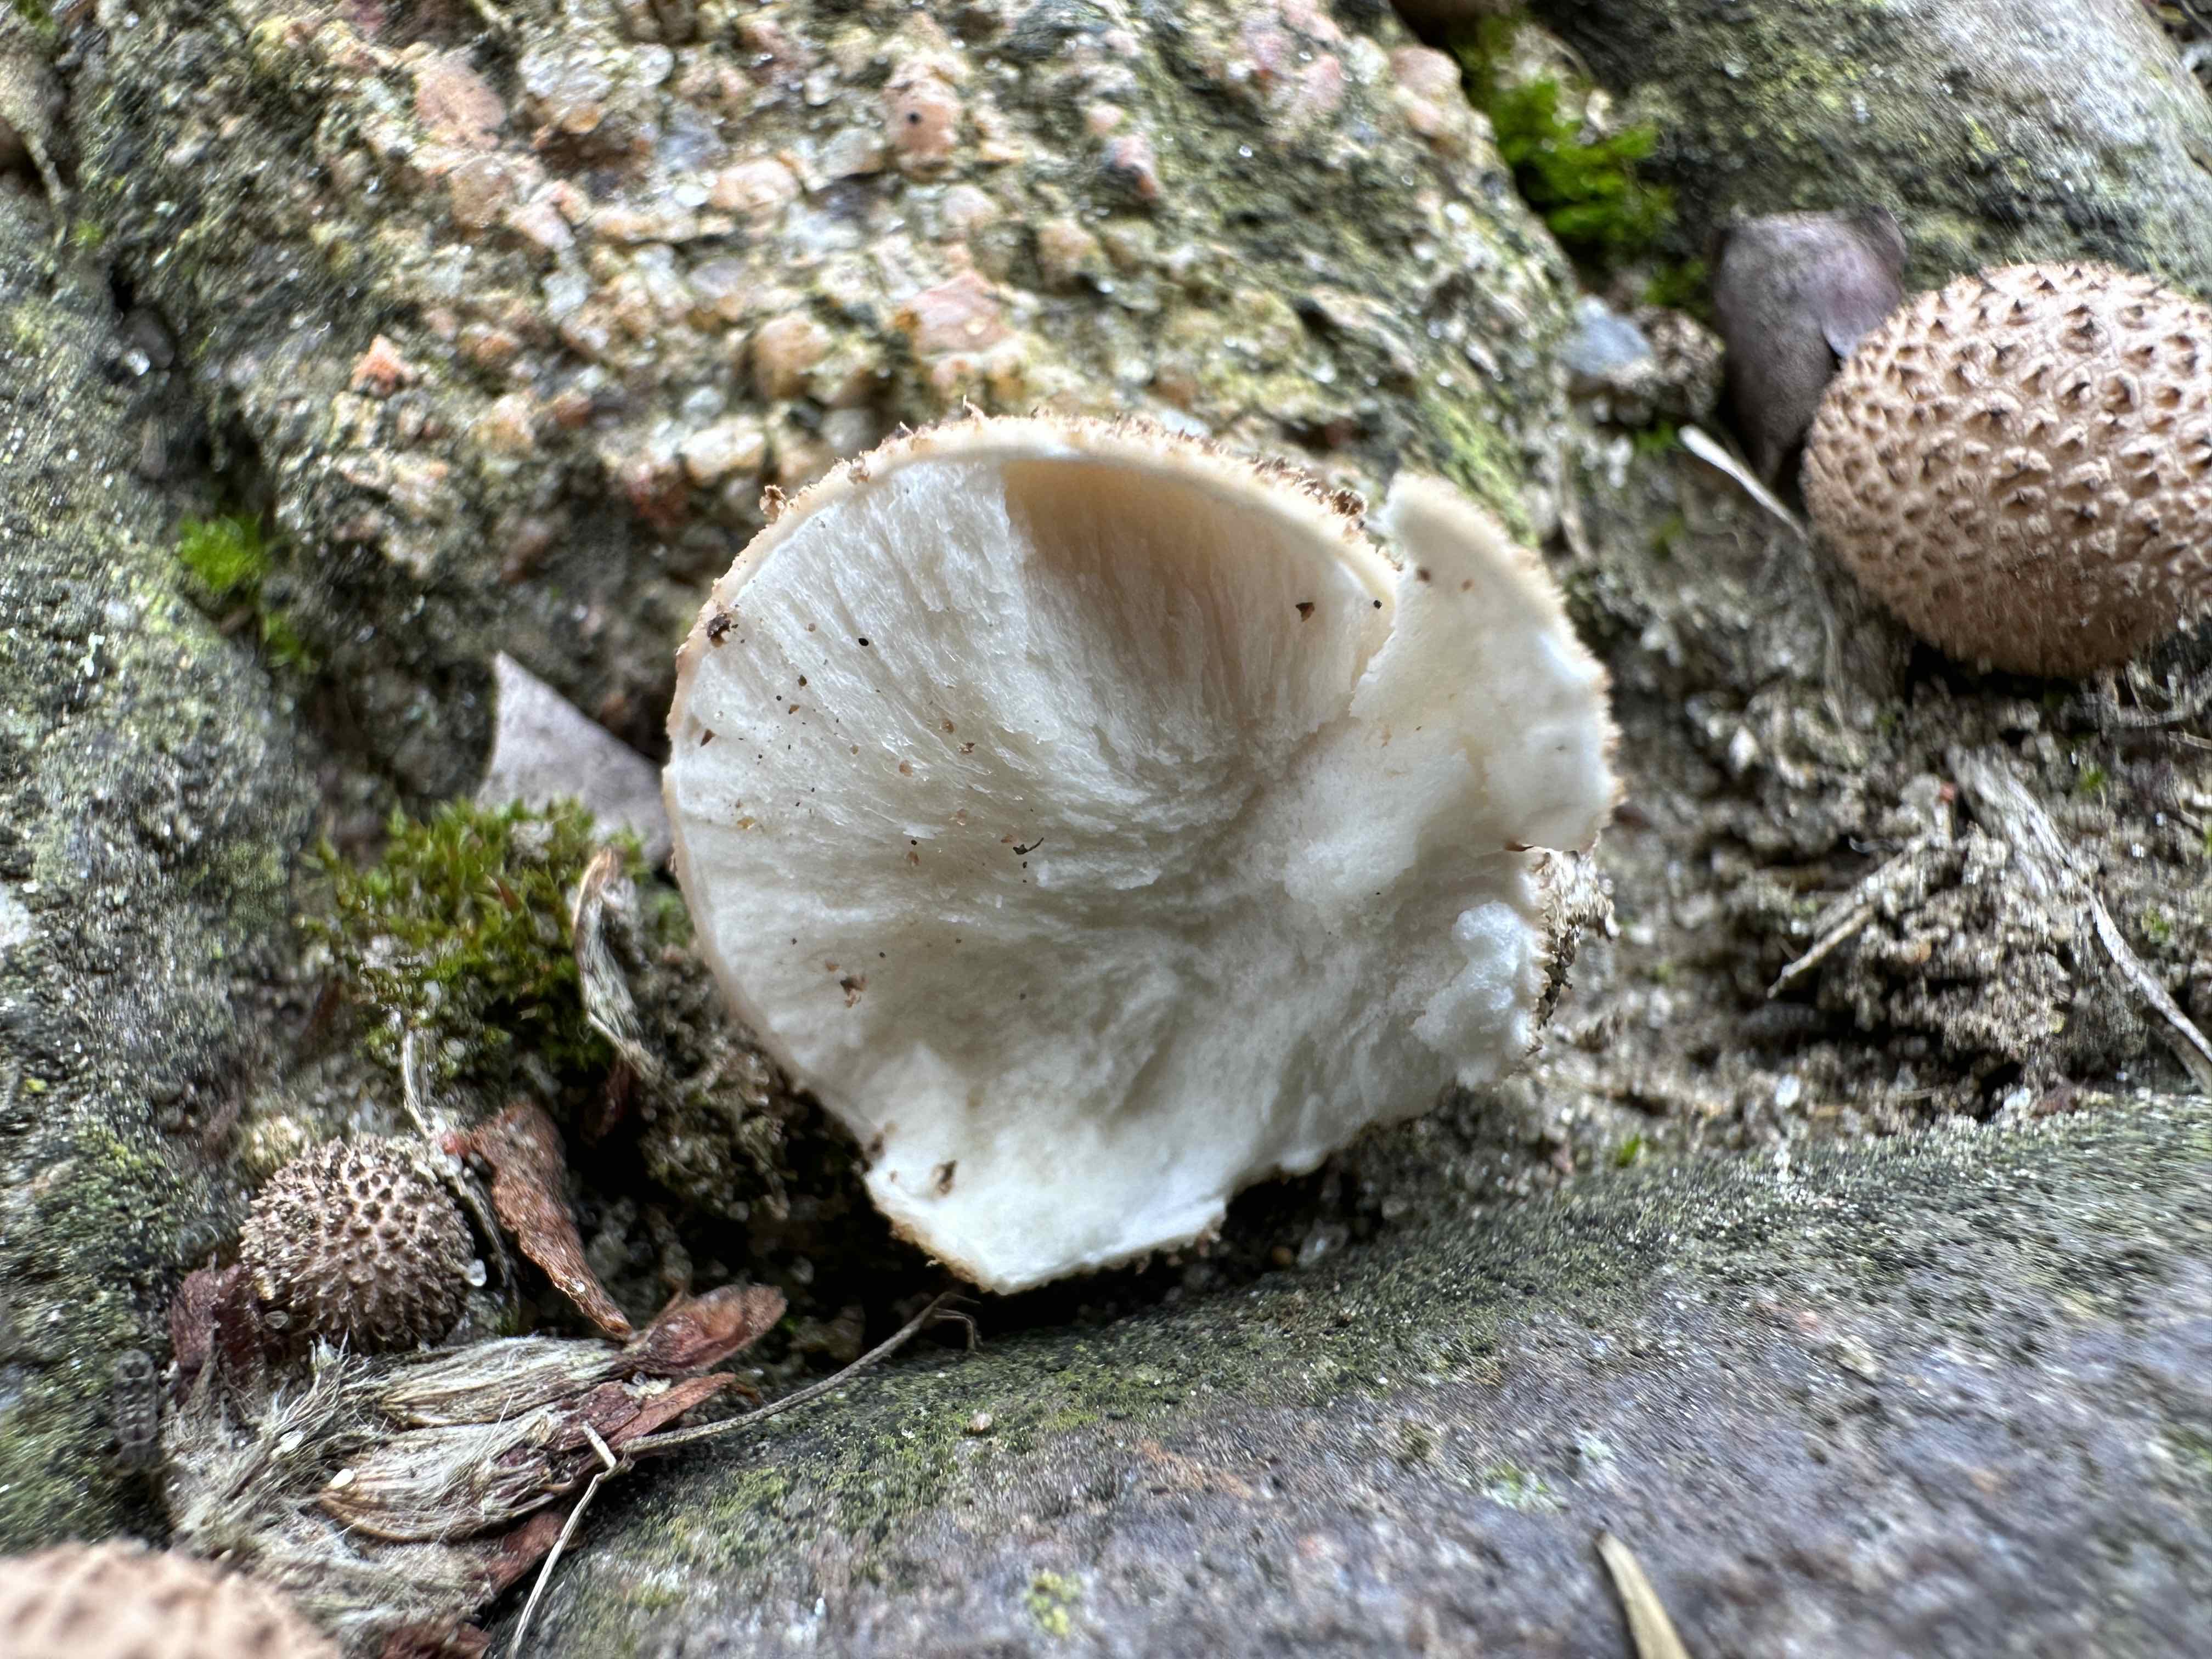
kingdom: Fungi
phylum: Basidiomycota
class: Agaricomycetes
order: Agaricales
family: Lycoperdaceae
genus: Lycoperdon
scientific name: Lycoperdon nigrescens
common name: sortagtig støvbold
